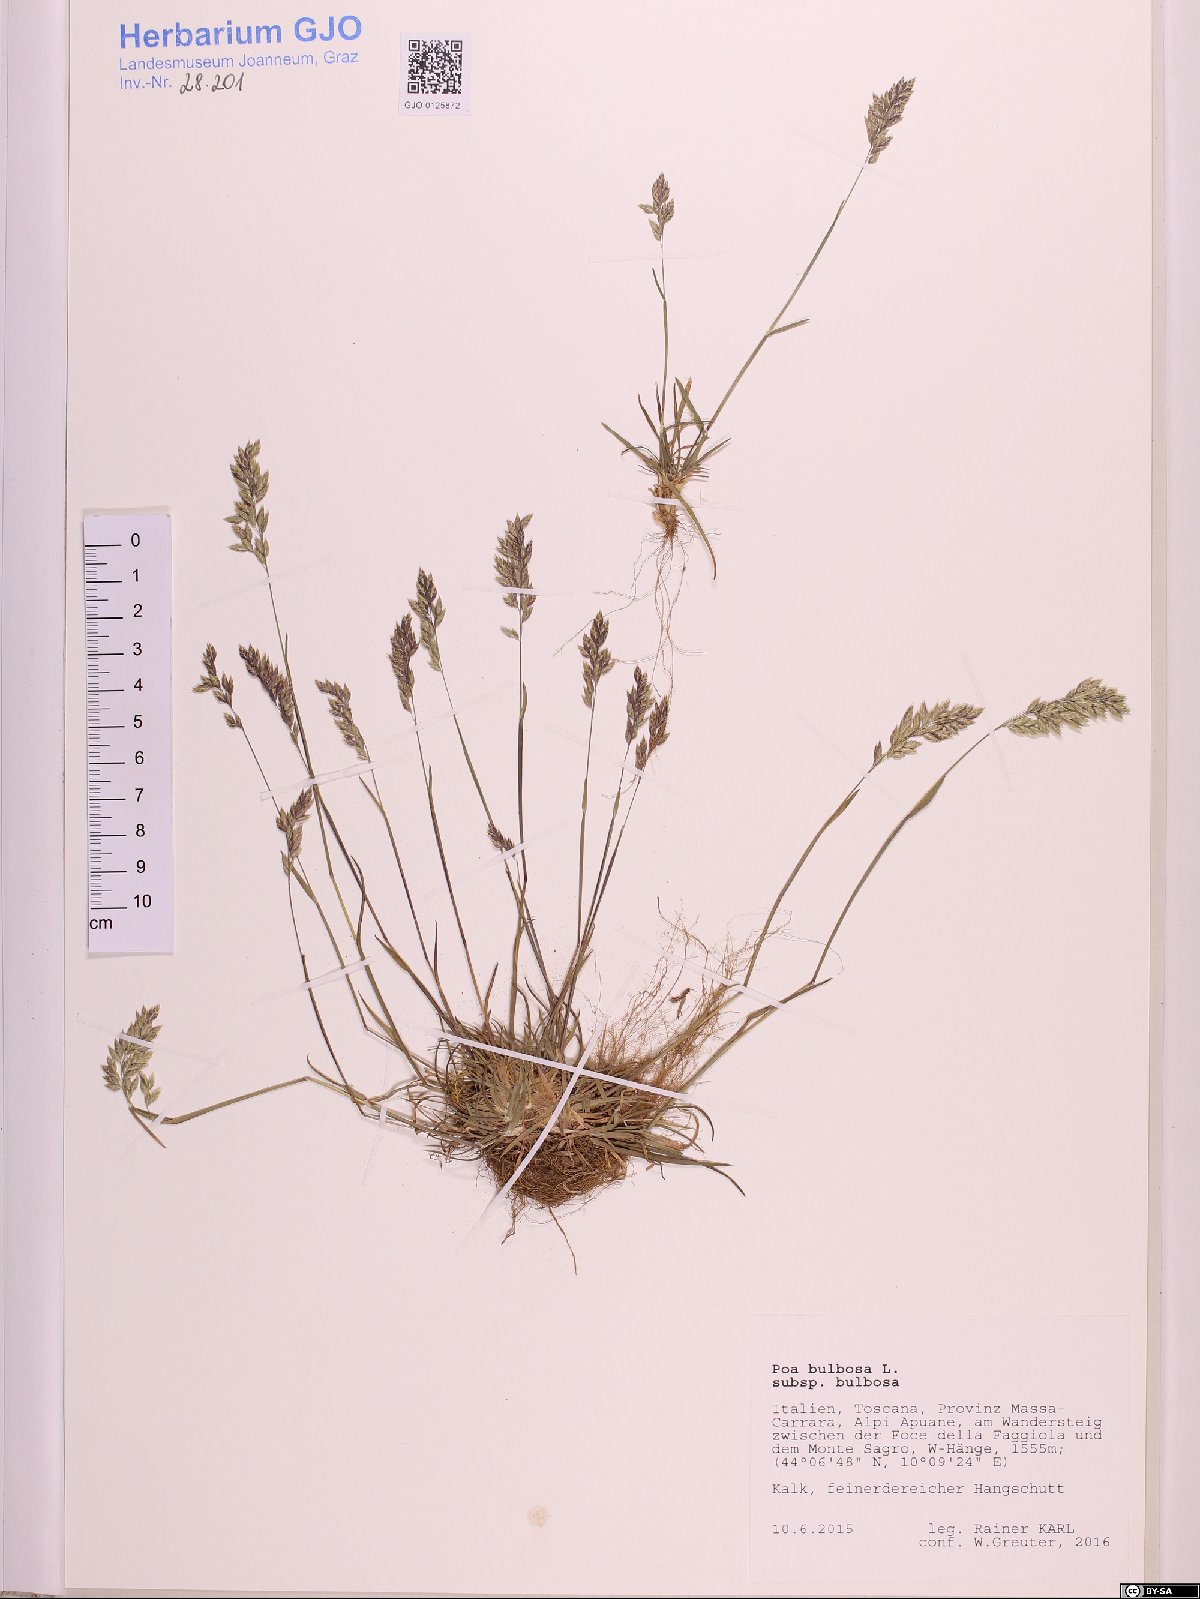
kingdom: Plantae
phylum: Tracheophyta
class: Liliopsida
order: Poales
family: Poaceae
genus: Poa
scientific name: Poa bulbosa
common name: Bulbous bluegrass
